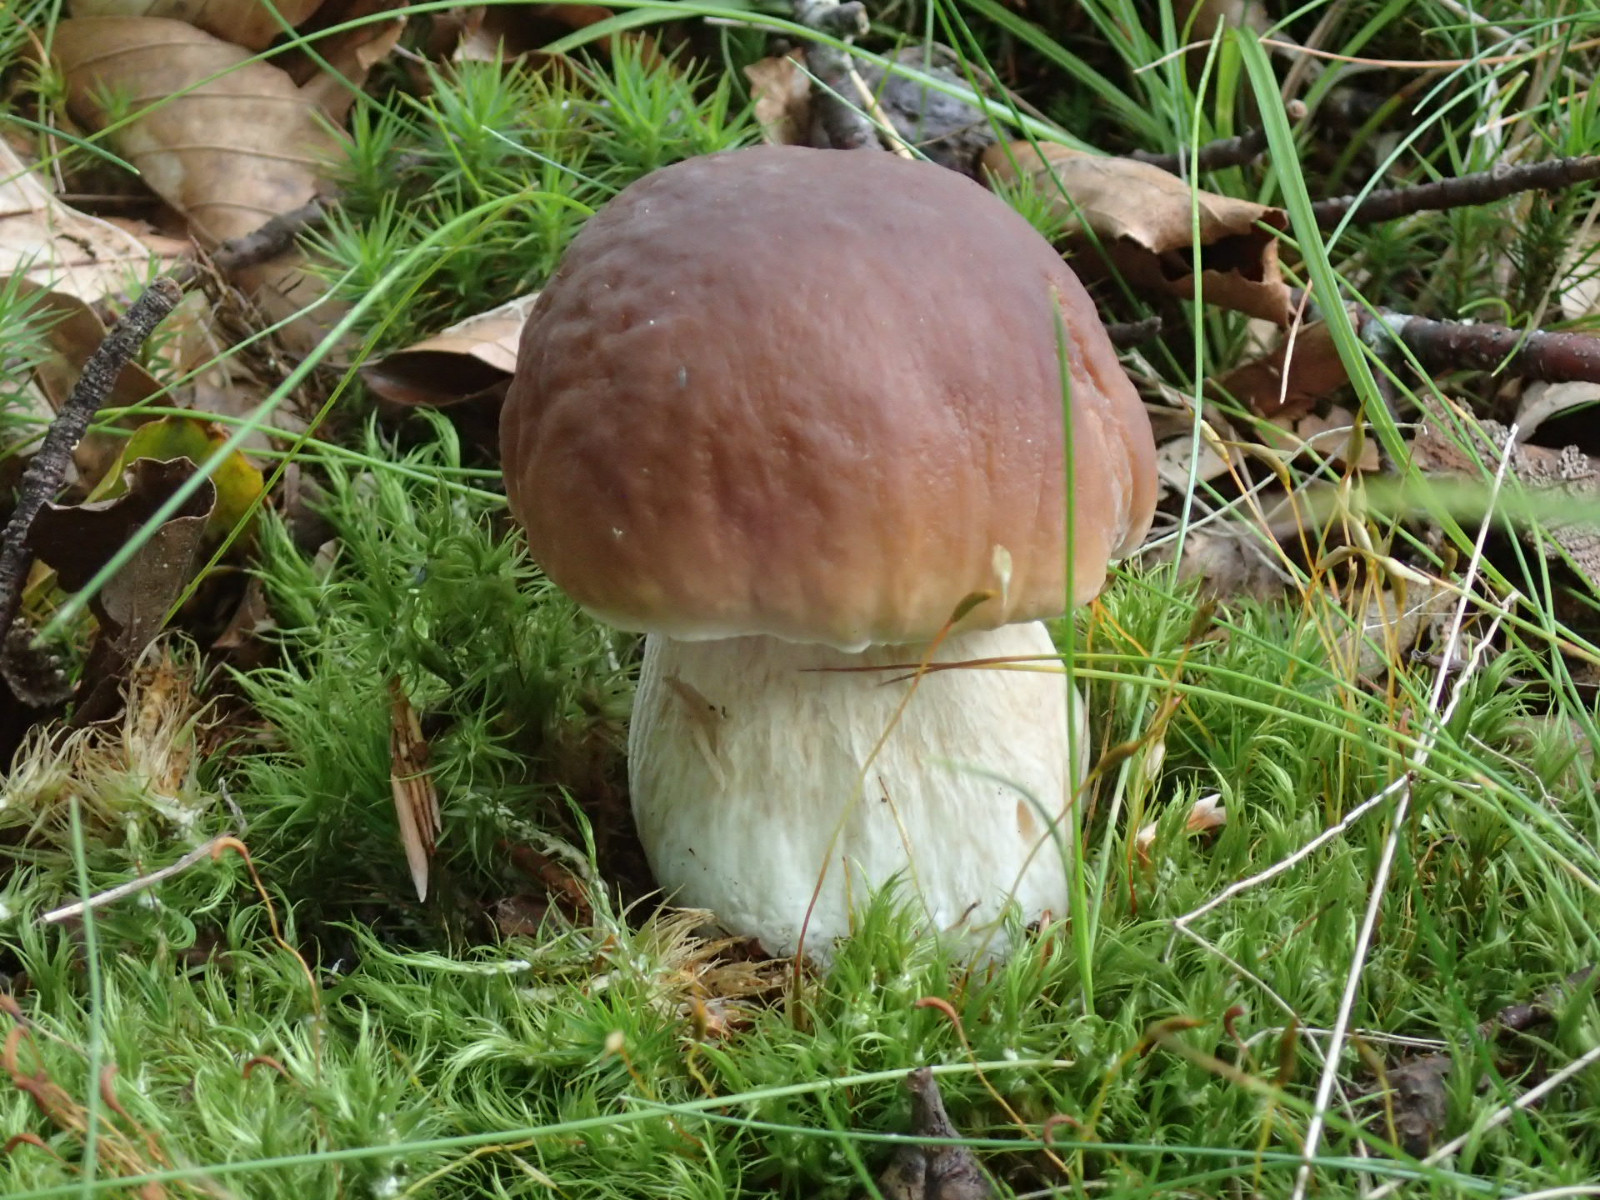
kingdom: Fungi
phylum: Basidiomycota
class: Agaricomycetes
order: Boletales
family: Boletaceae
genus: Boletus
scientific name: Boletus edulis
